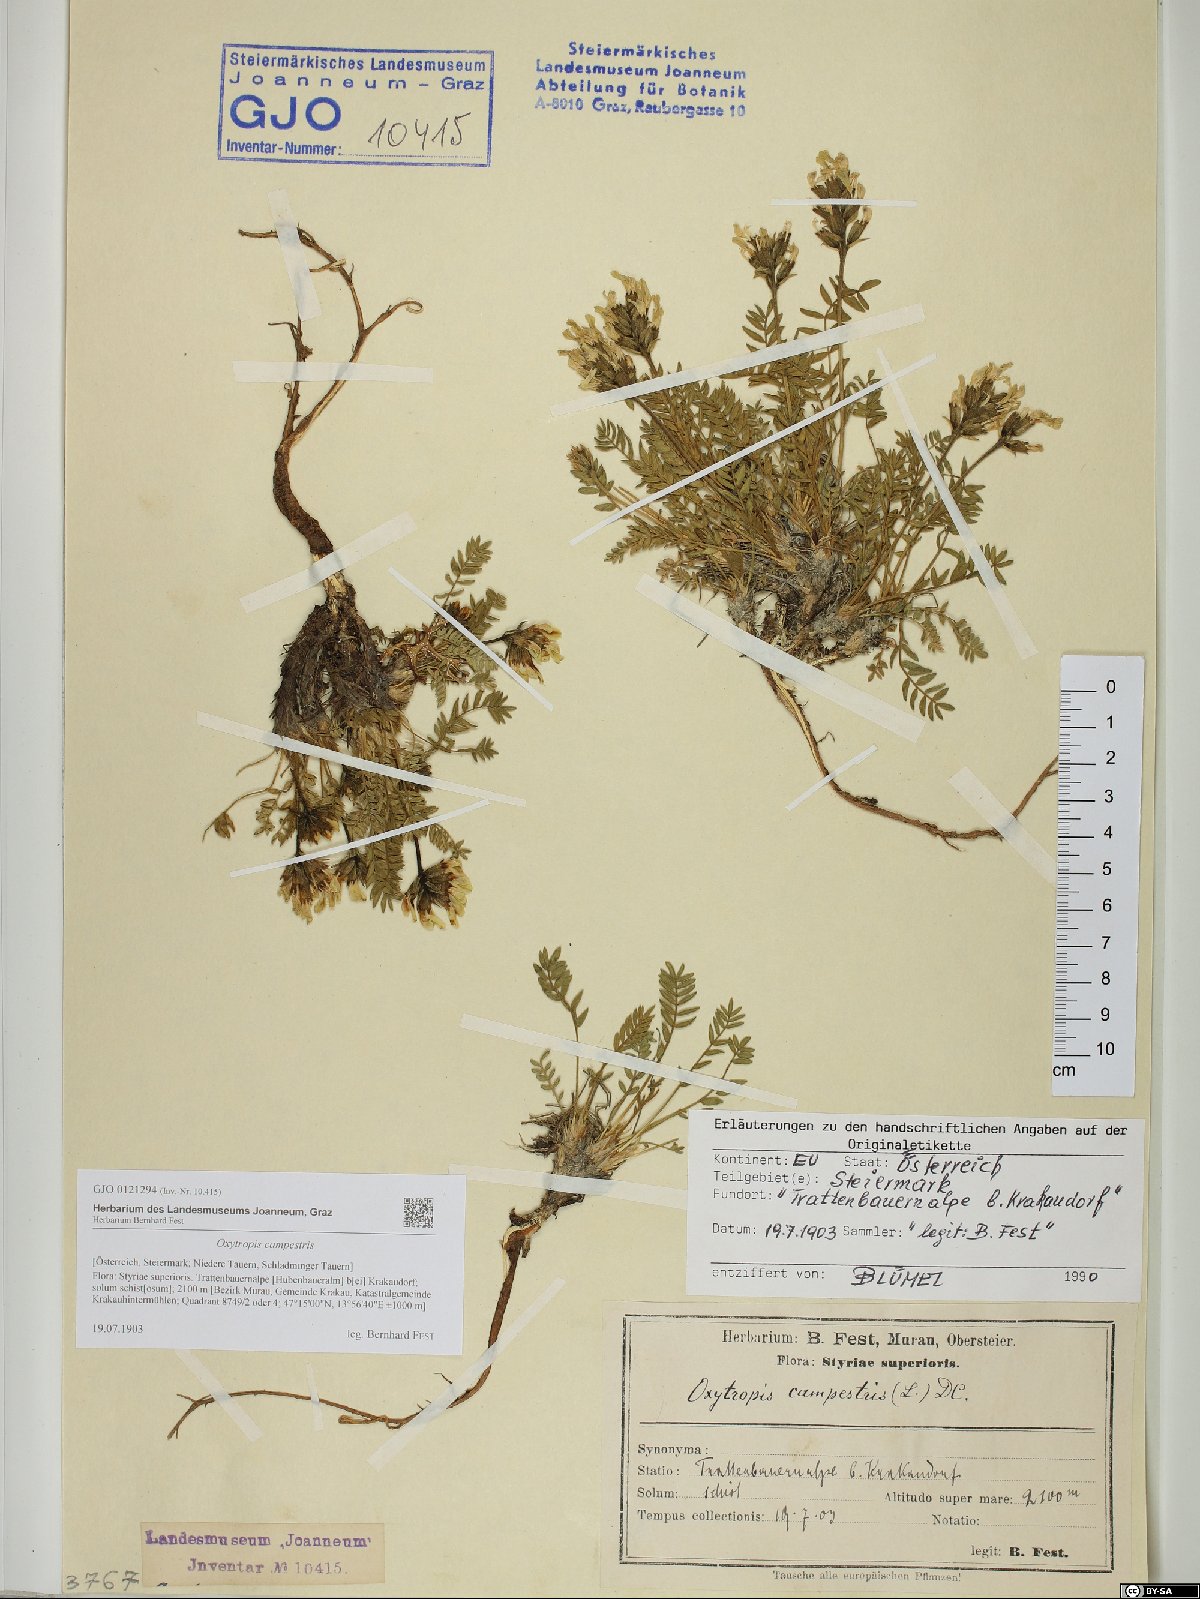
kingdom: Plantae
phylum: Tracheophyta
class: Magnoliopsida
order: Fabales
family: Fabaceae
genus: Oxytropis
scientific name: Oxytropis campestris
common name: Field locoweed
